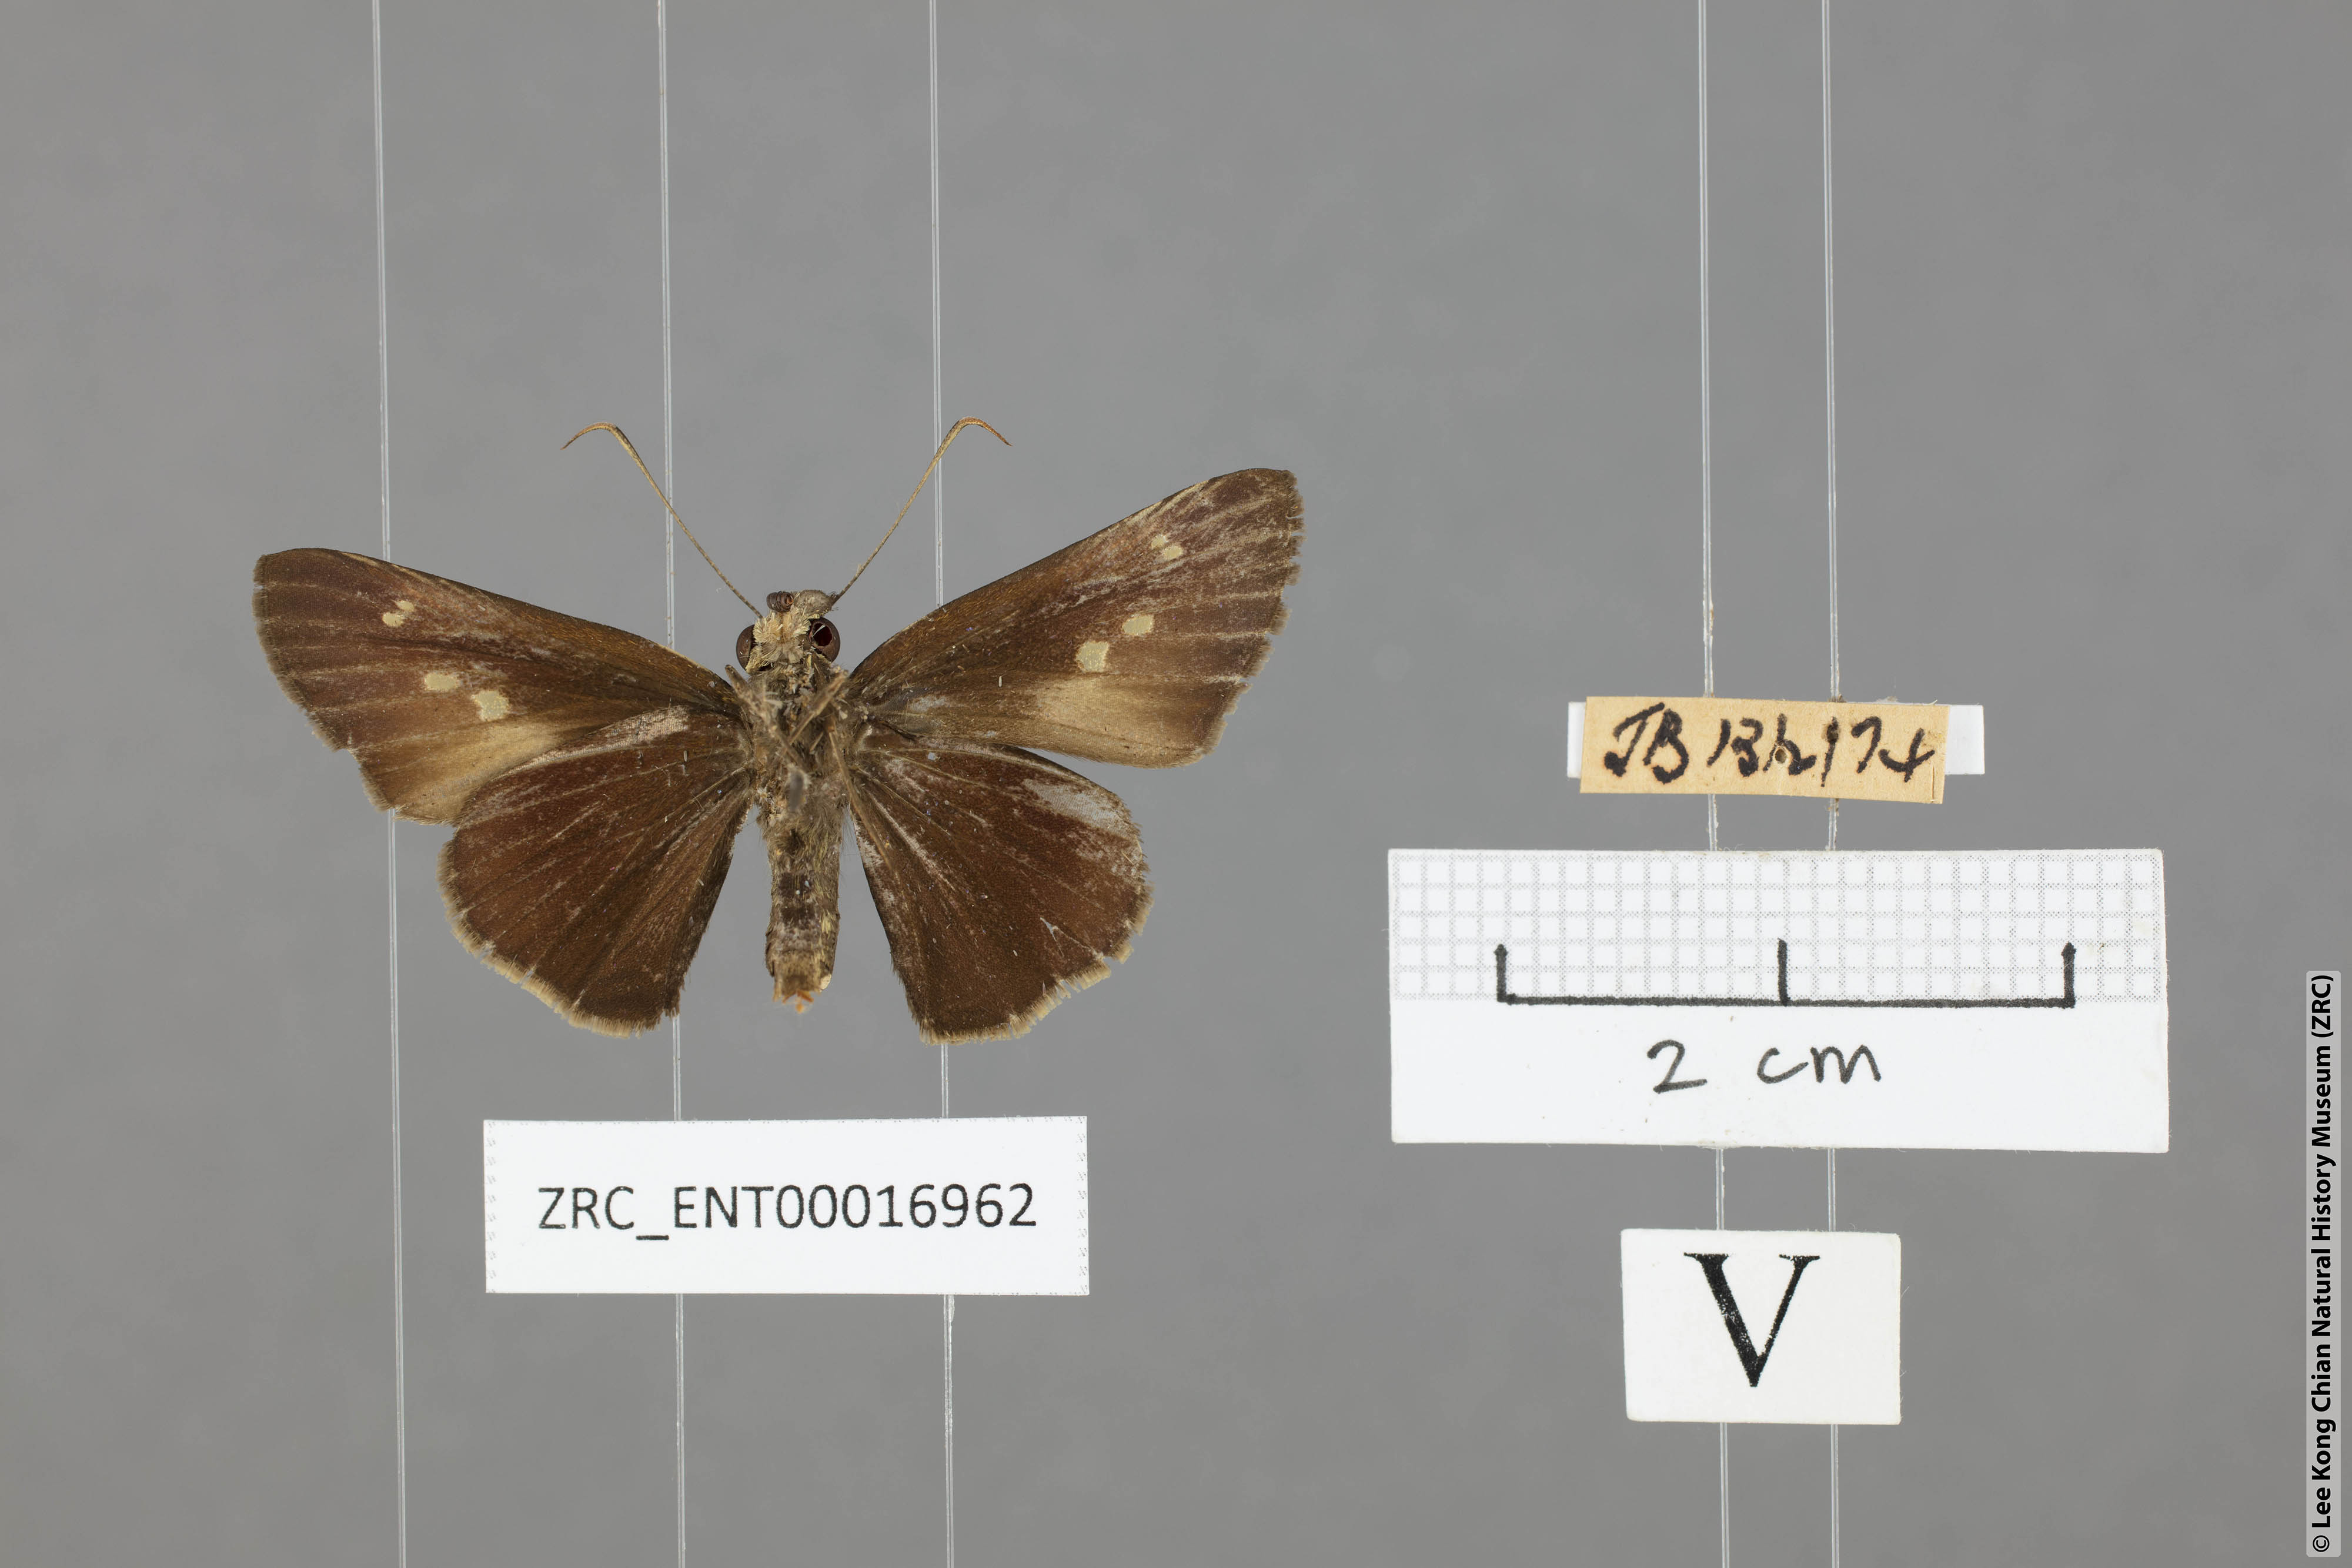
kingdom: Animalia
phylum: Arthropoda
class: Insecta
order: Lepidoptera
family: Hesperiidae
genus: Ge
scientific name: Ge
